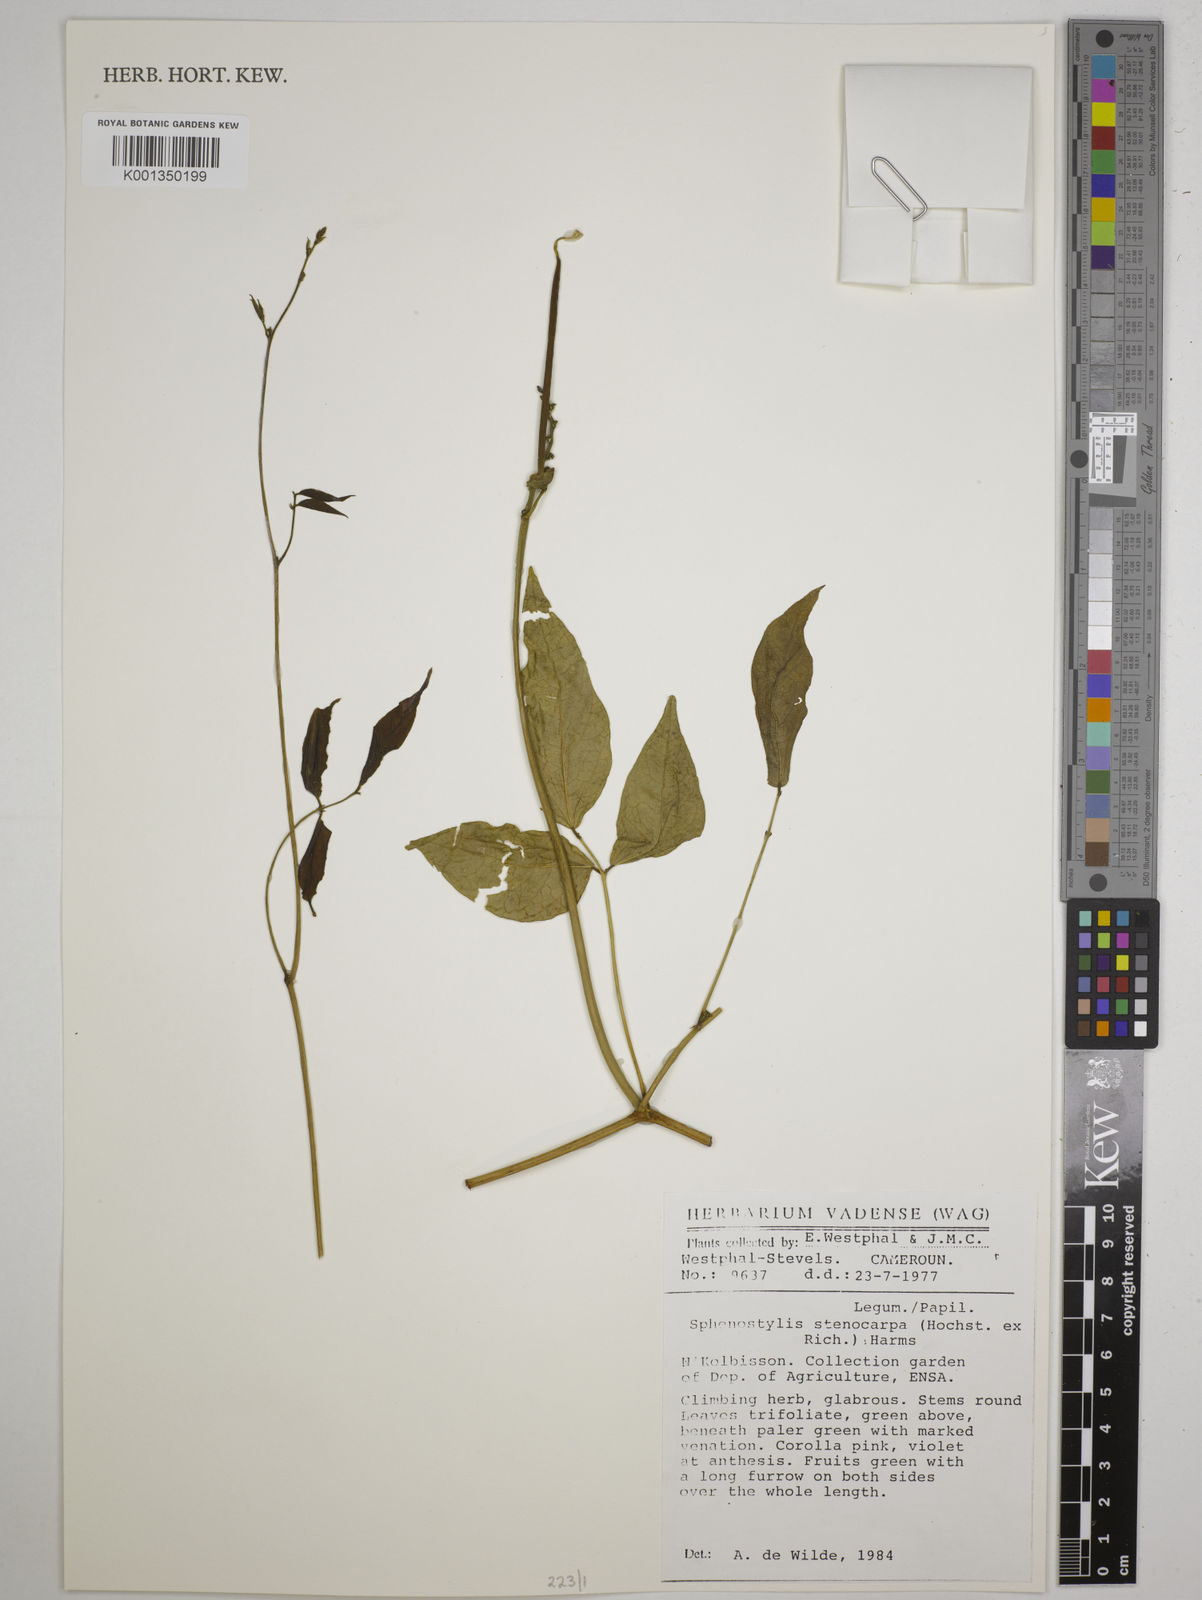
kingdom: Plantae
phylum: Tracheophyta
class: Magnoliopsida
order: Fabales
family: Fabaceae
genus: Sphenostylis
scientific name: Sphenostylis stenocarpa
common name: Yam-pea
